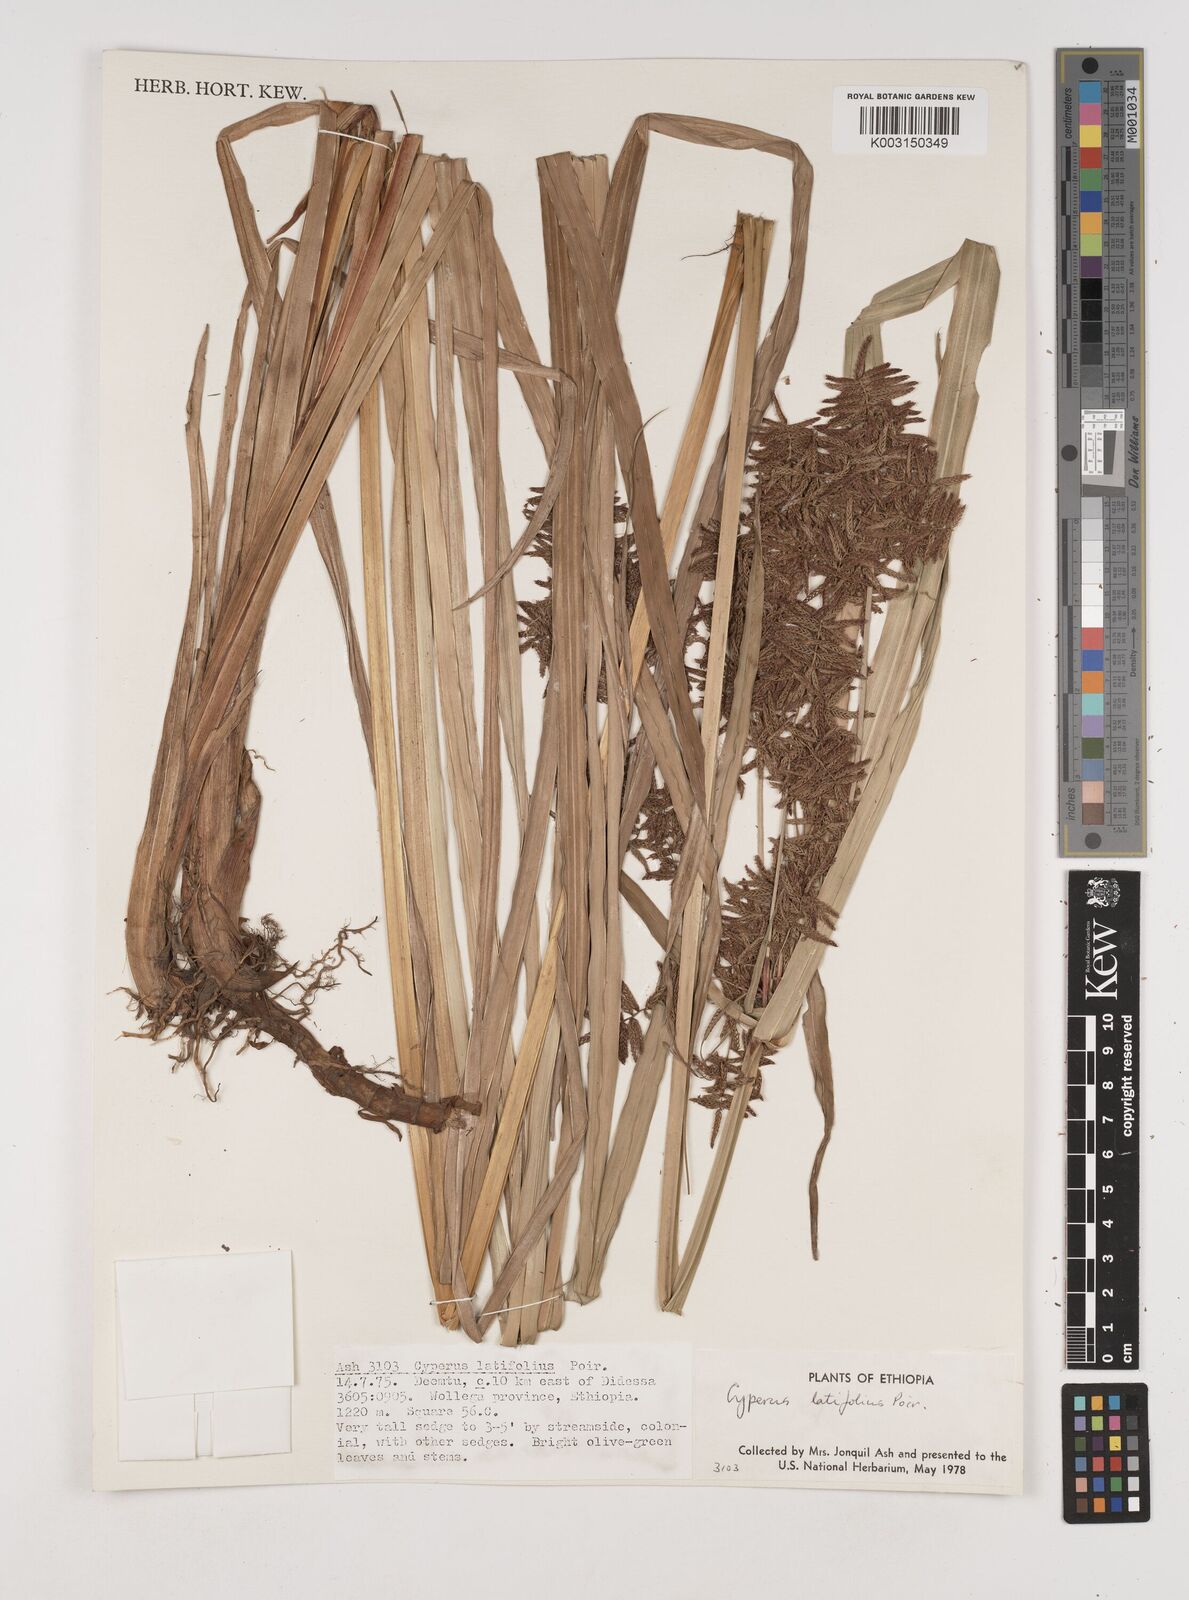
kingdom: Plantae
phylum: Tracheophyta
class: Liliopsida
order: Poales
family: Cyperaceae
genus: Cyperus
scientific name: Cyperus latifolius
